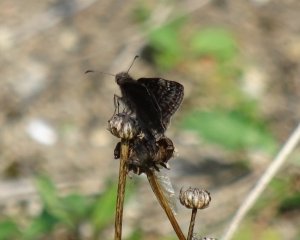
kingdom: Animalia
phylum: Arthropoda
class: Insecta
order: Lepidoptera
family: Hesperiidae
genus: Gesta
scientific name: Gesta
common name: Wild Indigo Duskywing
